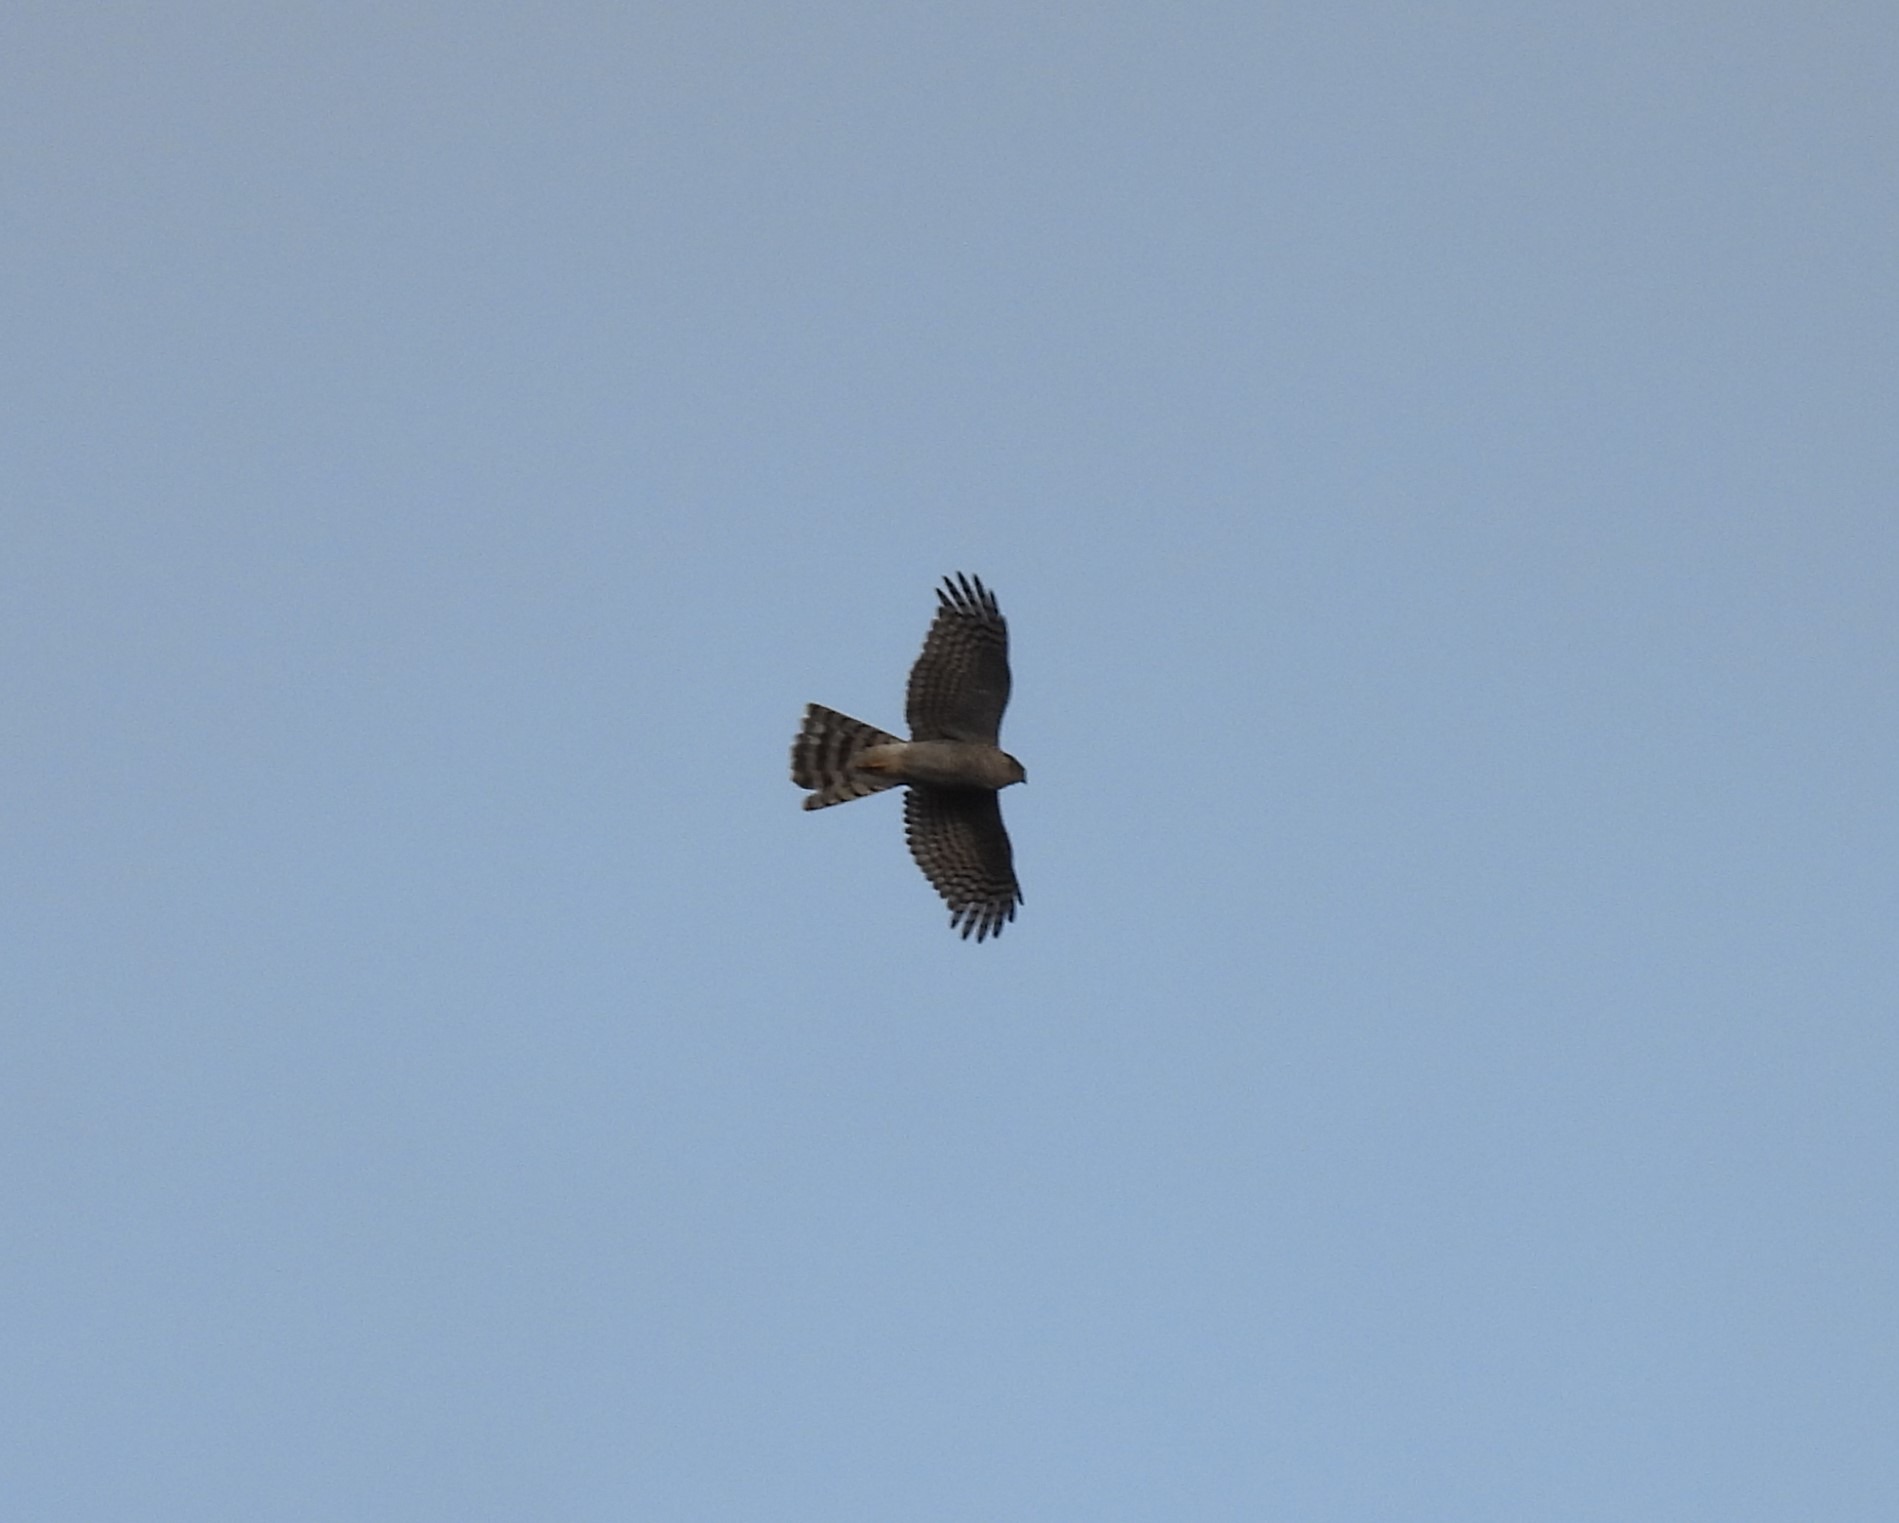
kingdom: Animalia
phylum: Chordata
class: Aves
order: Accipitriformes
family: Accipitridae
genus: Accipiter
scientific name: Accipiter nisus
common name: Spurvehøg
